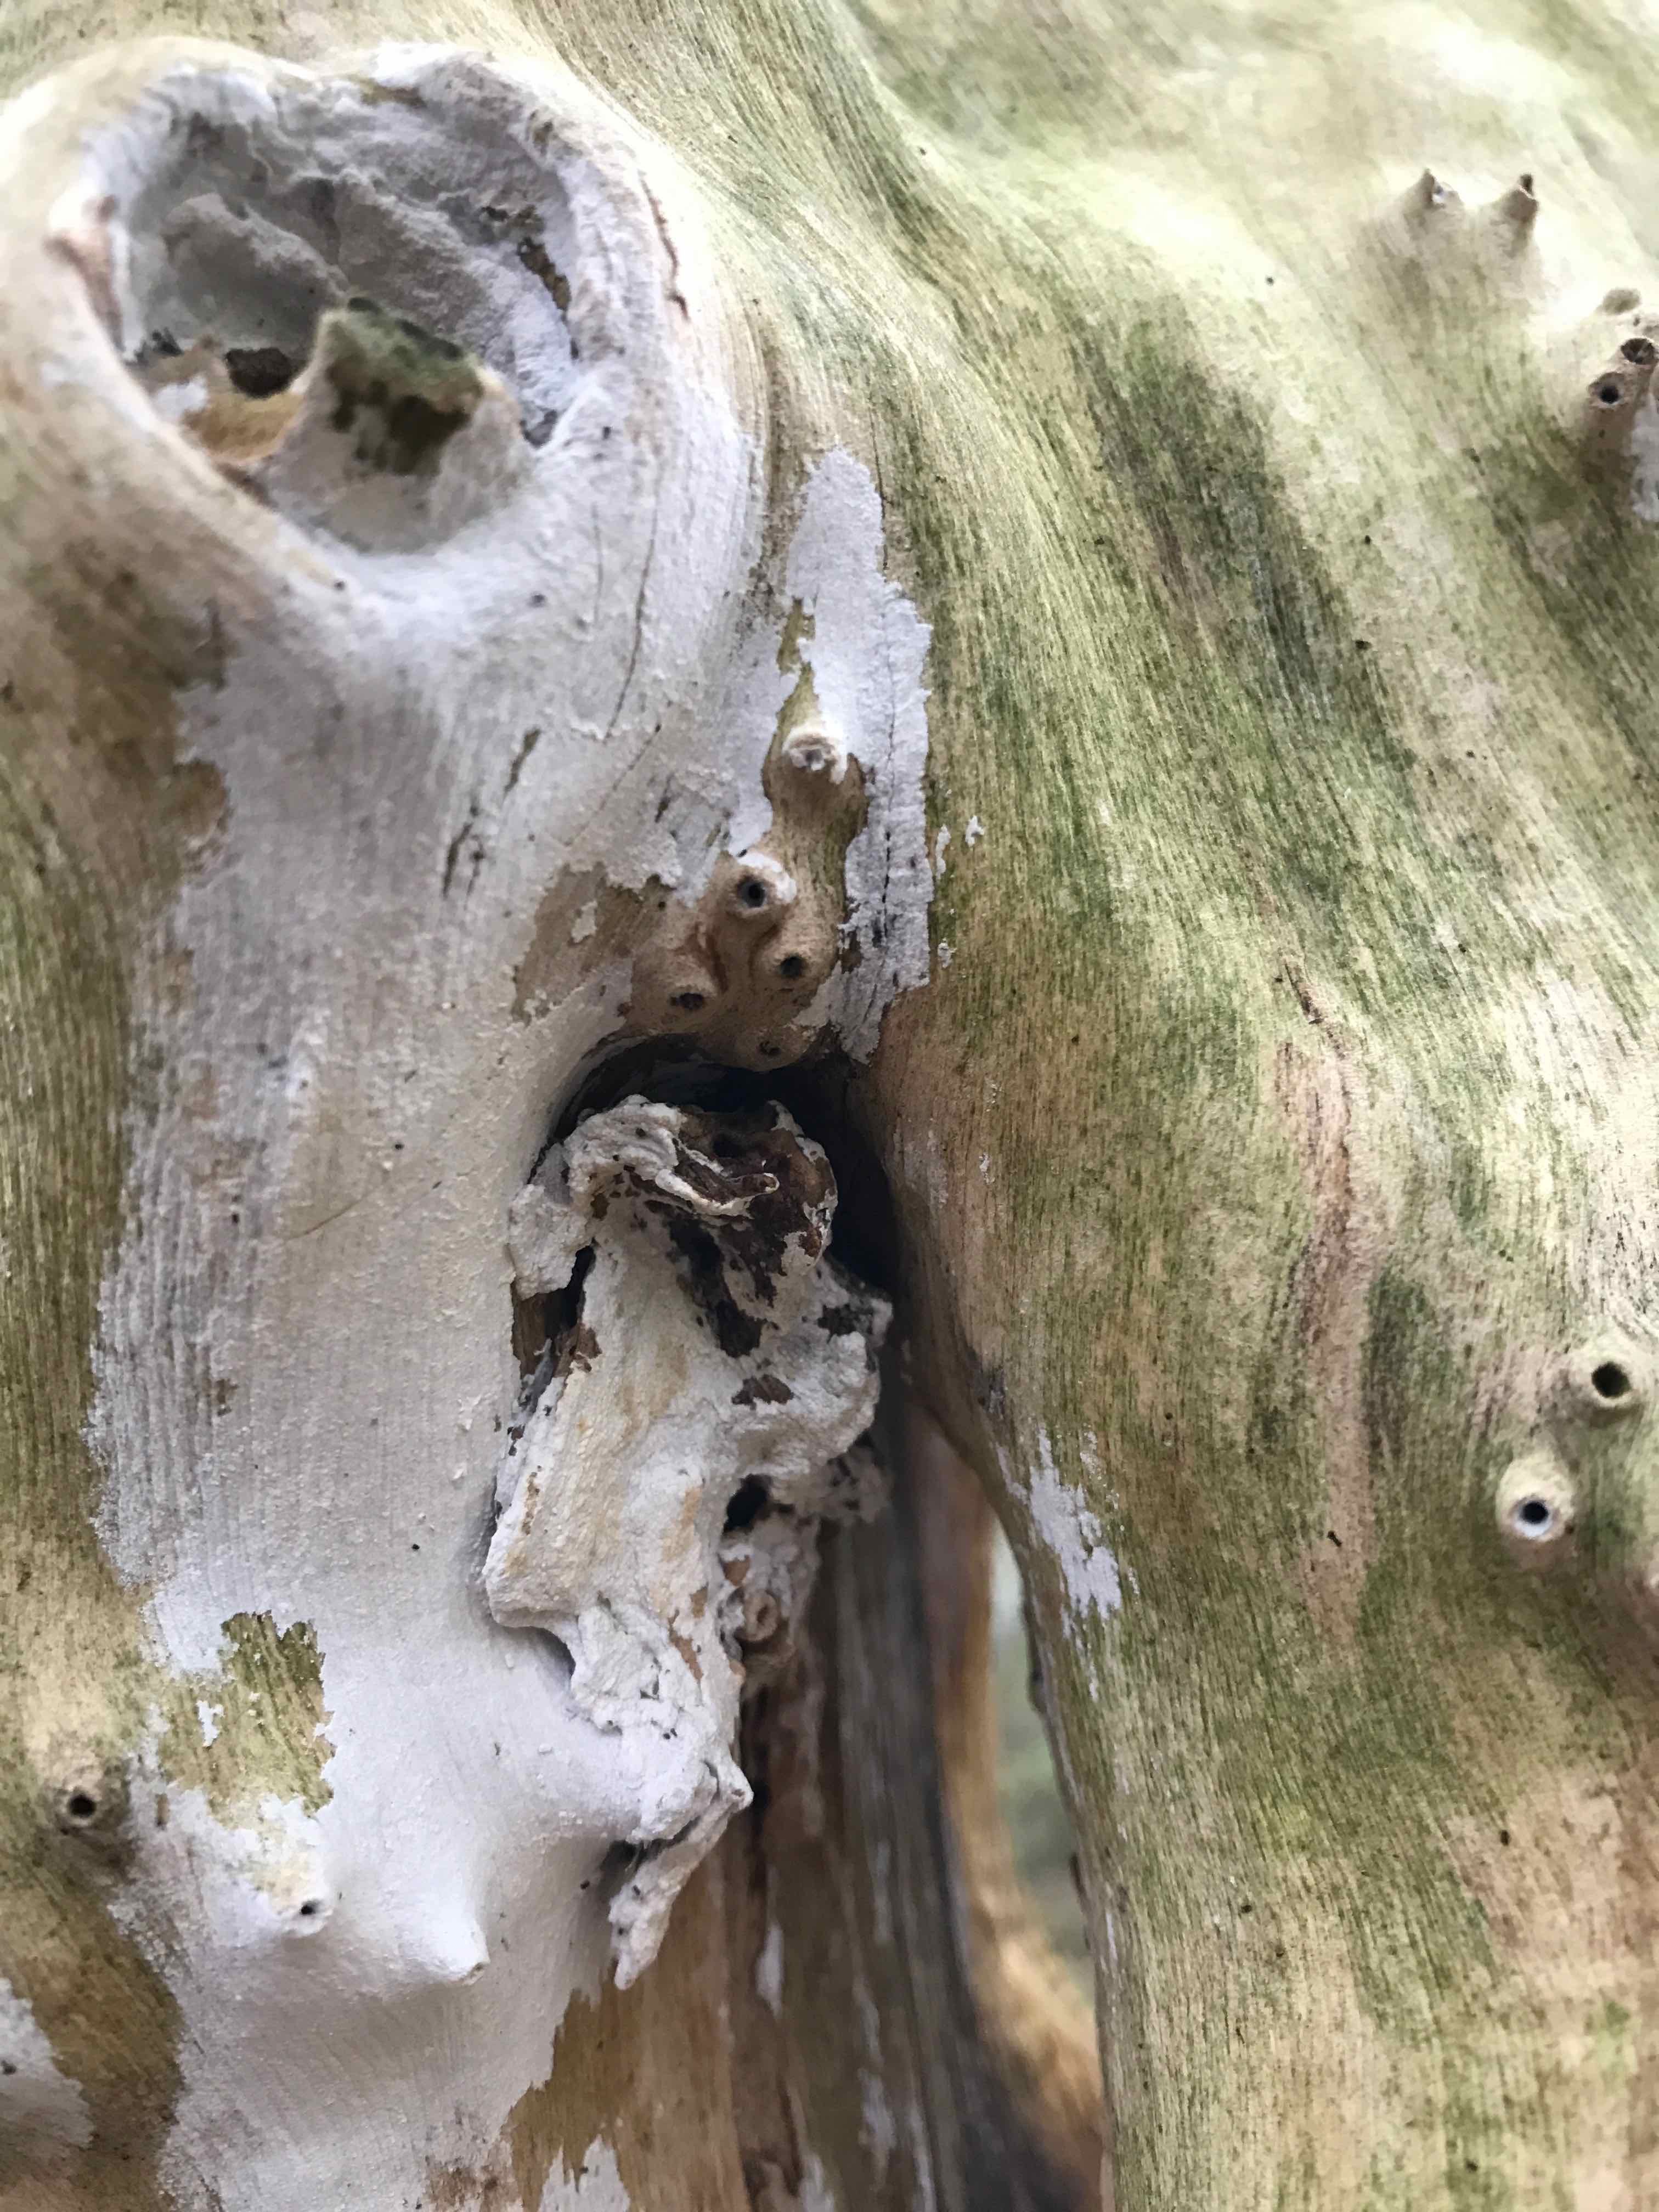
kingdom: Fungi
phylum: Basidiomycota
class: Agaricomycetes
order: Corticiales
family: Corticiaceae
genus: Lyomyces
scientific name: Lyomyces sambuci
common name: almindelig hyldehinde
